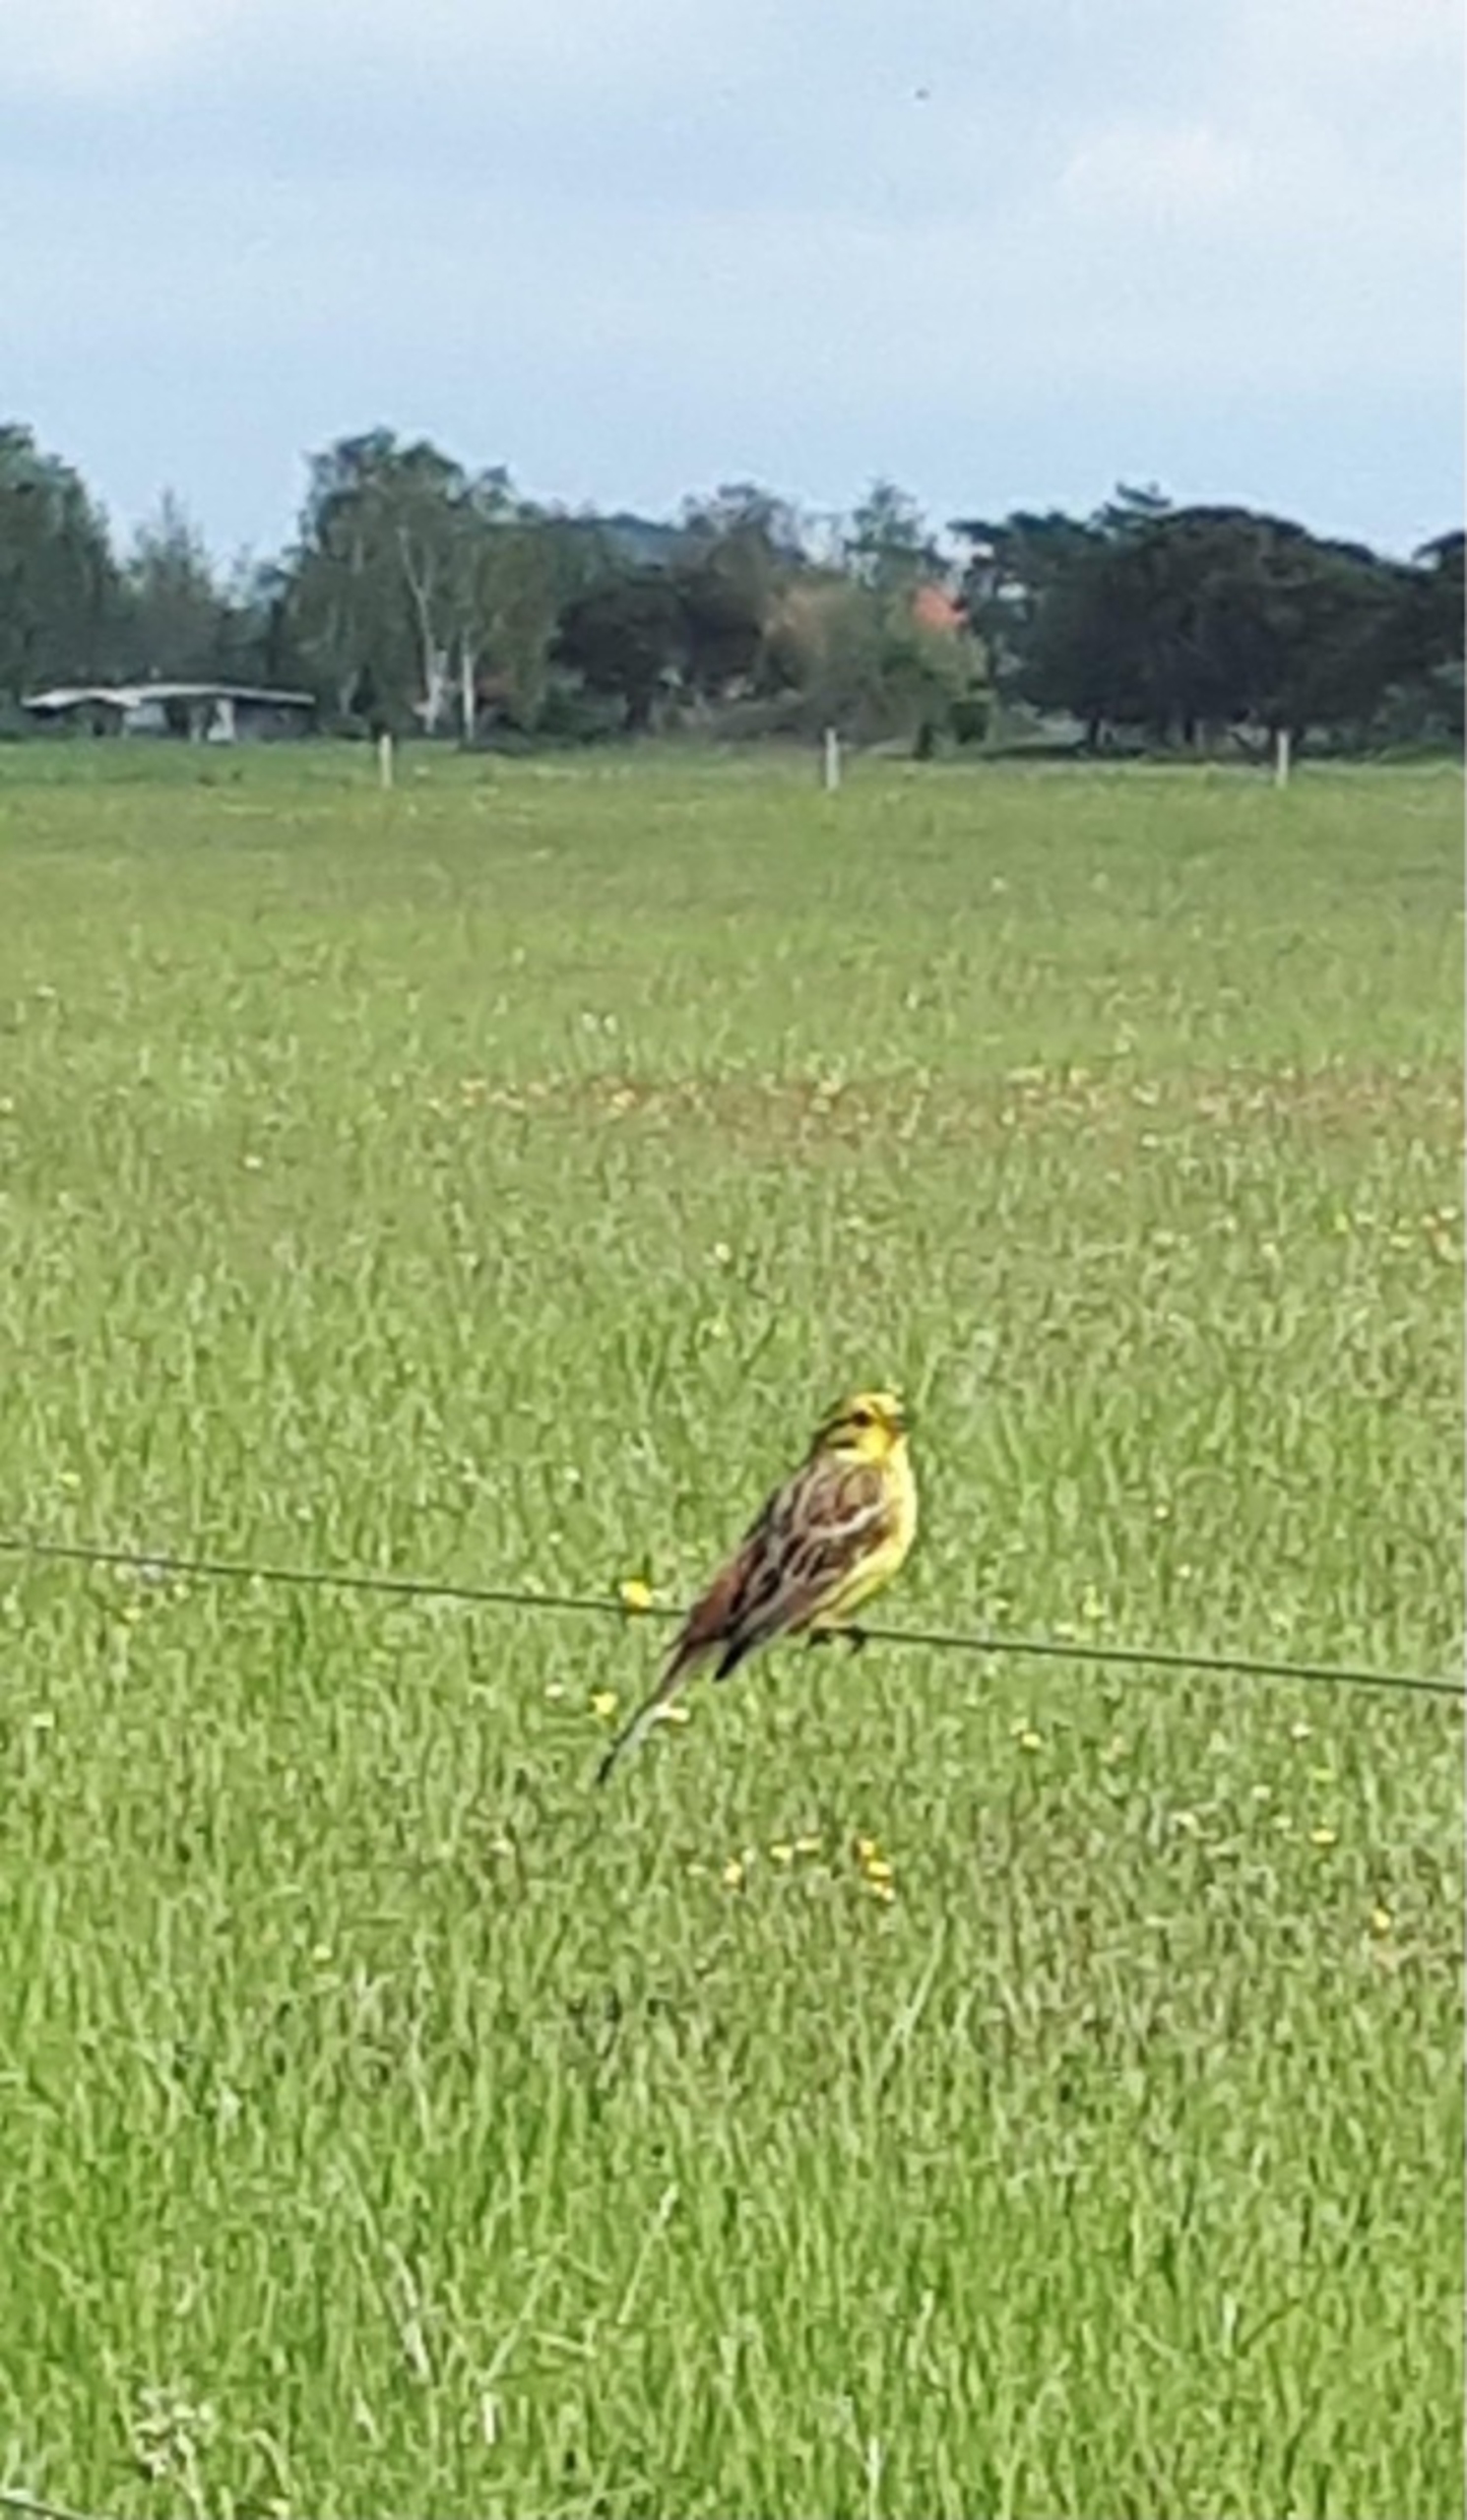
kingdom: Animalia
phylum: Chordata
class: Aves
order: Passeriformes
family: Emberizidae
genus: Emberiza
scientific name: Emberiza citrinella
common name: Gulspurv
